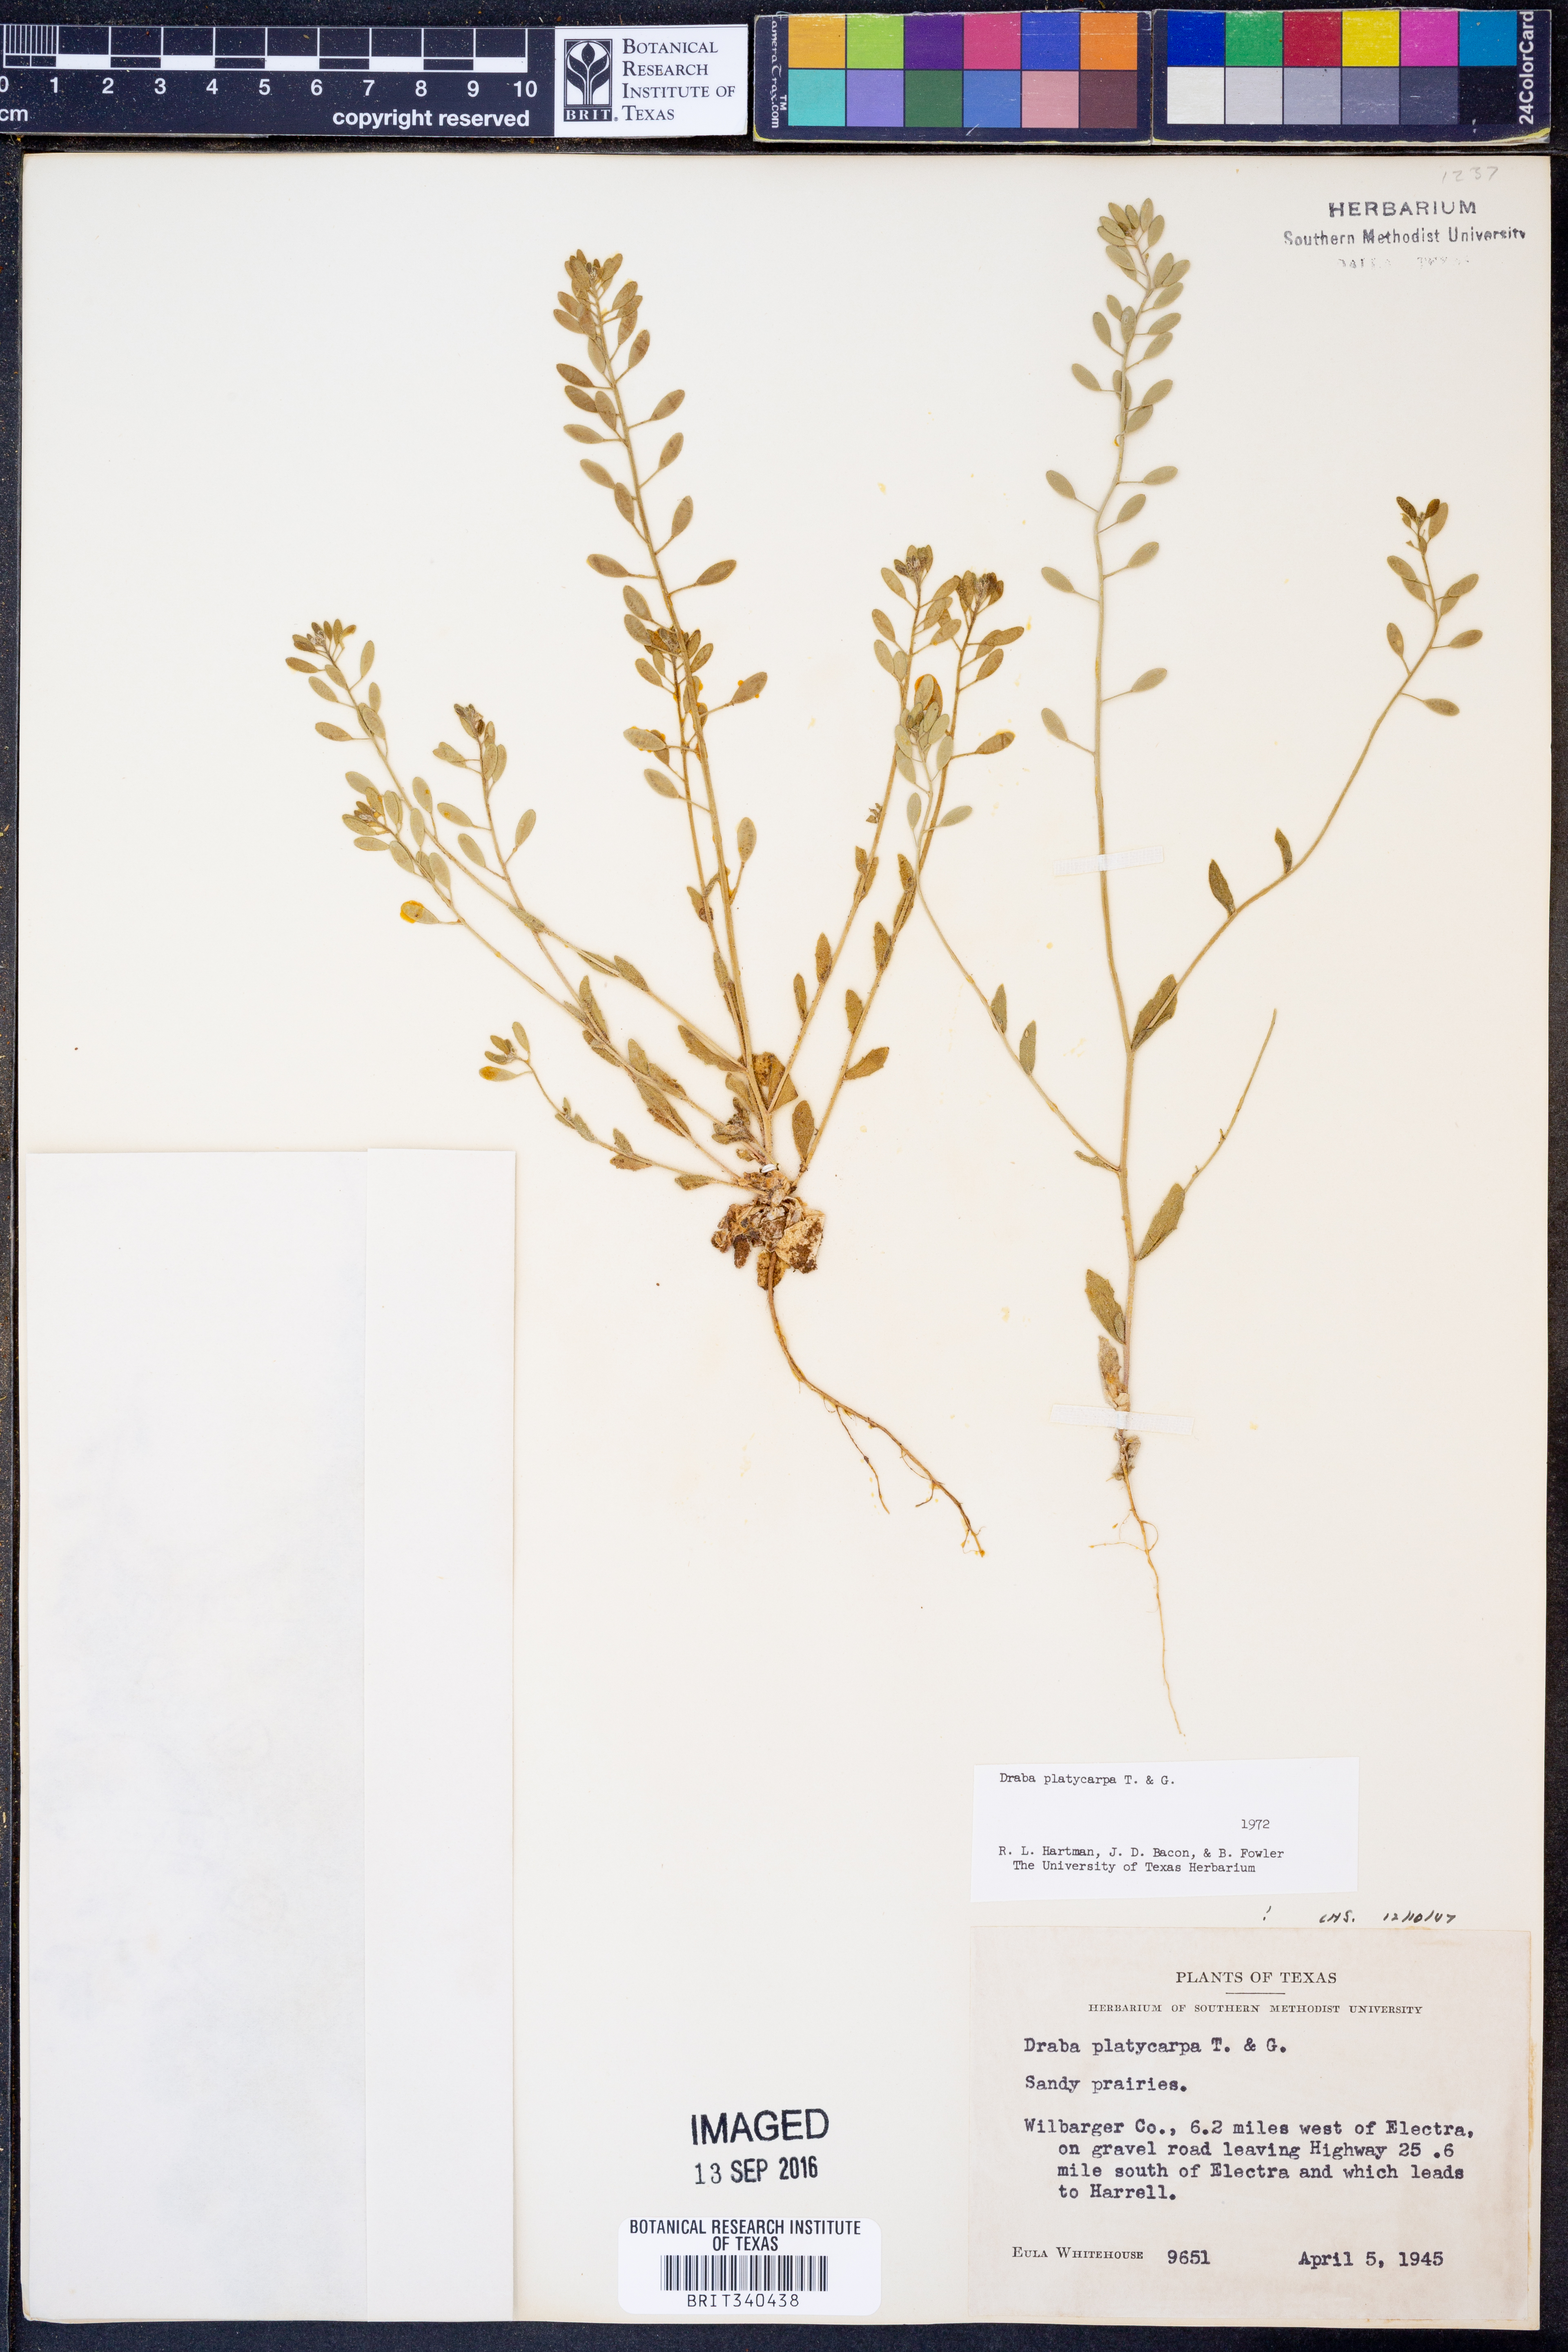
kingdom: Plantae
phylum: Tracheophyta
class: Magnoliopsida
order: Brassicales
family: Brassicaceae
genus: Tomostima
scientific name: Tomostima platycarpa
